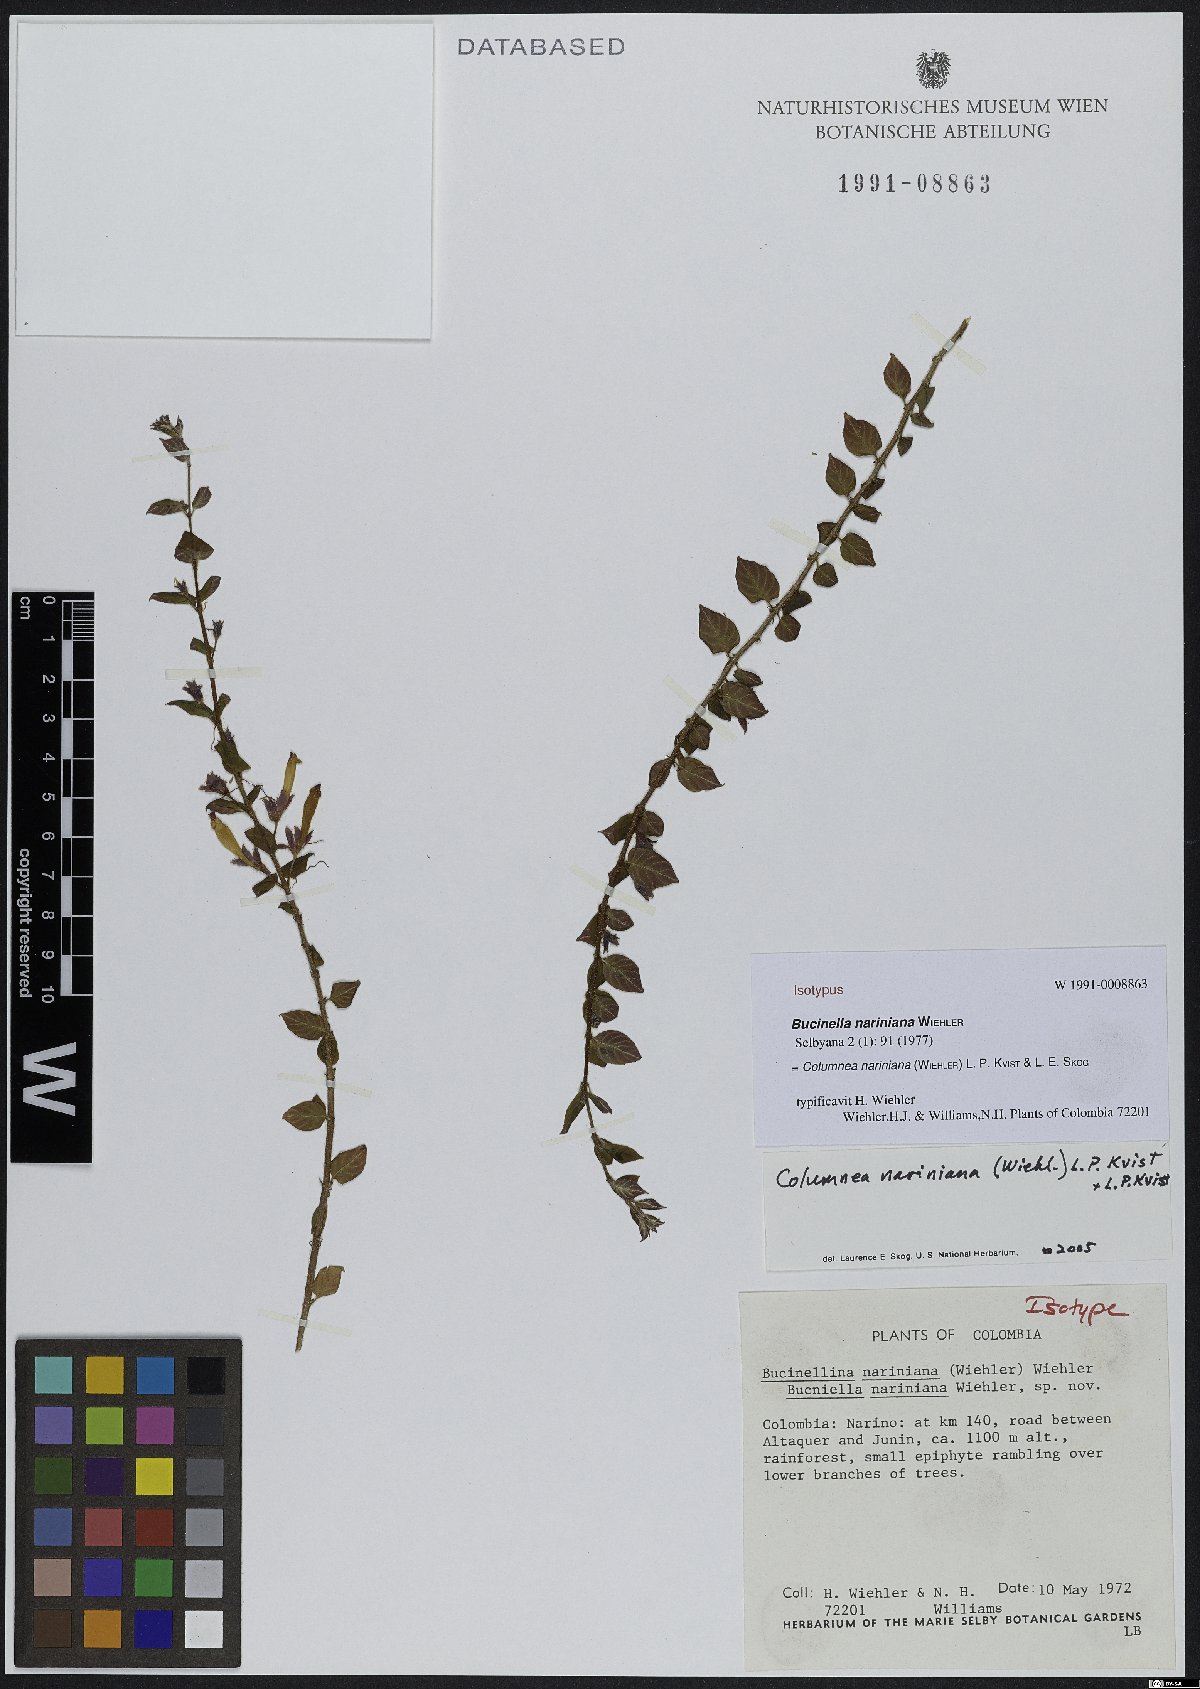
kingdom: Plantae
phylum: Tracheophyta
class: Magnoliopsida
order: Lamiales
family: Gesneriaceae
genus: Columnea
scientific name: Columnea nariniana
